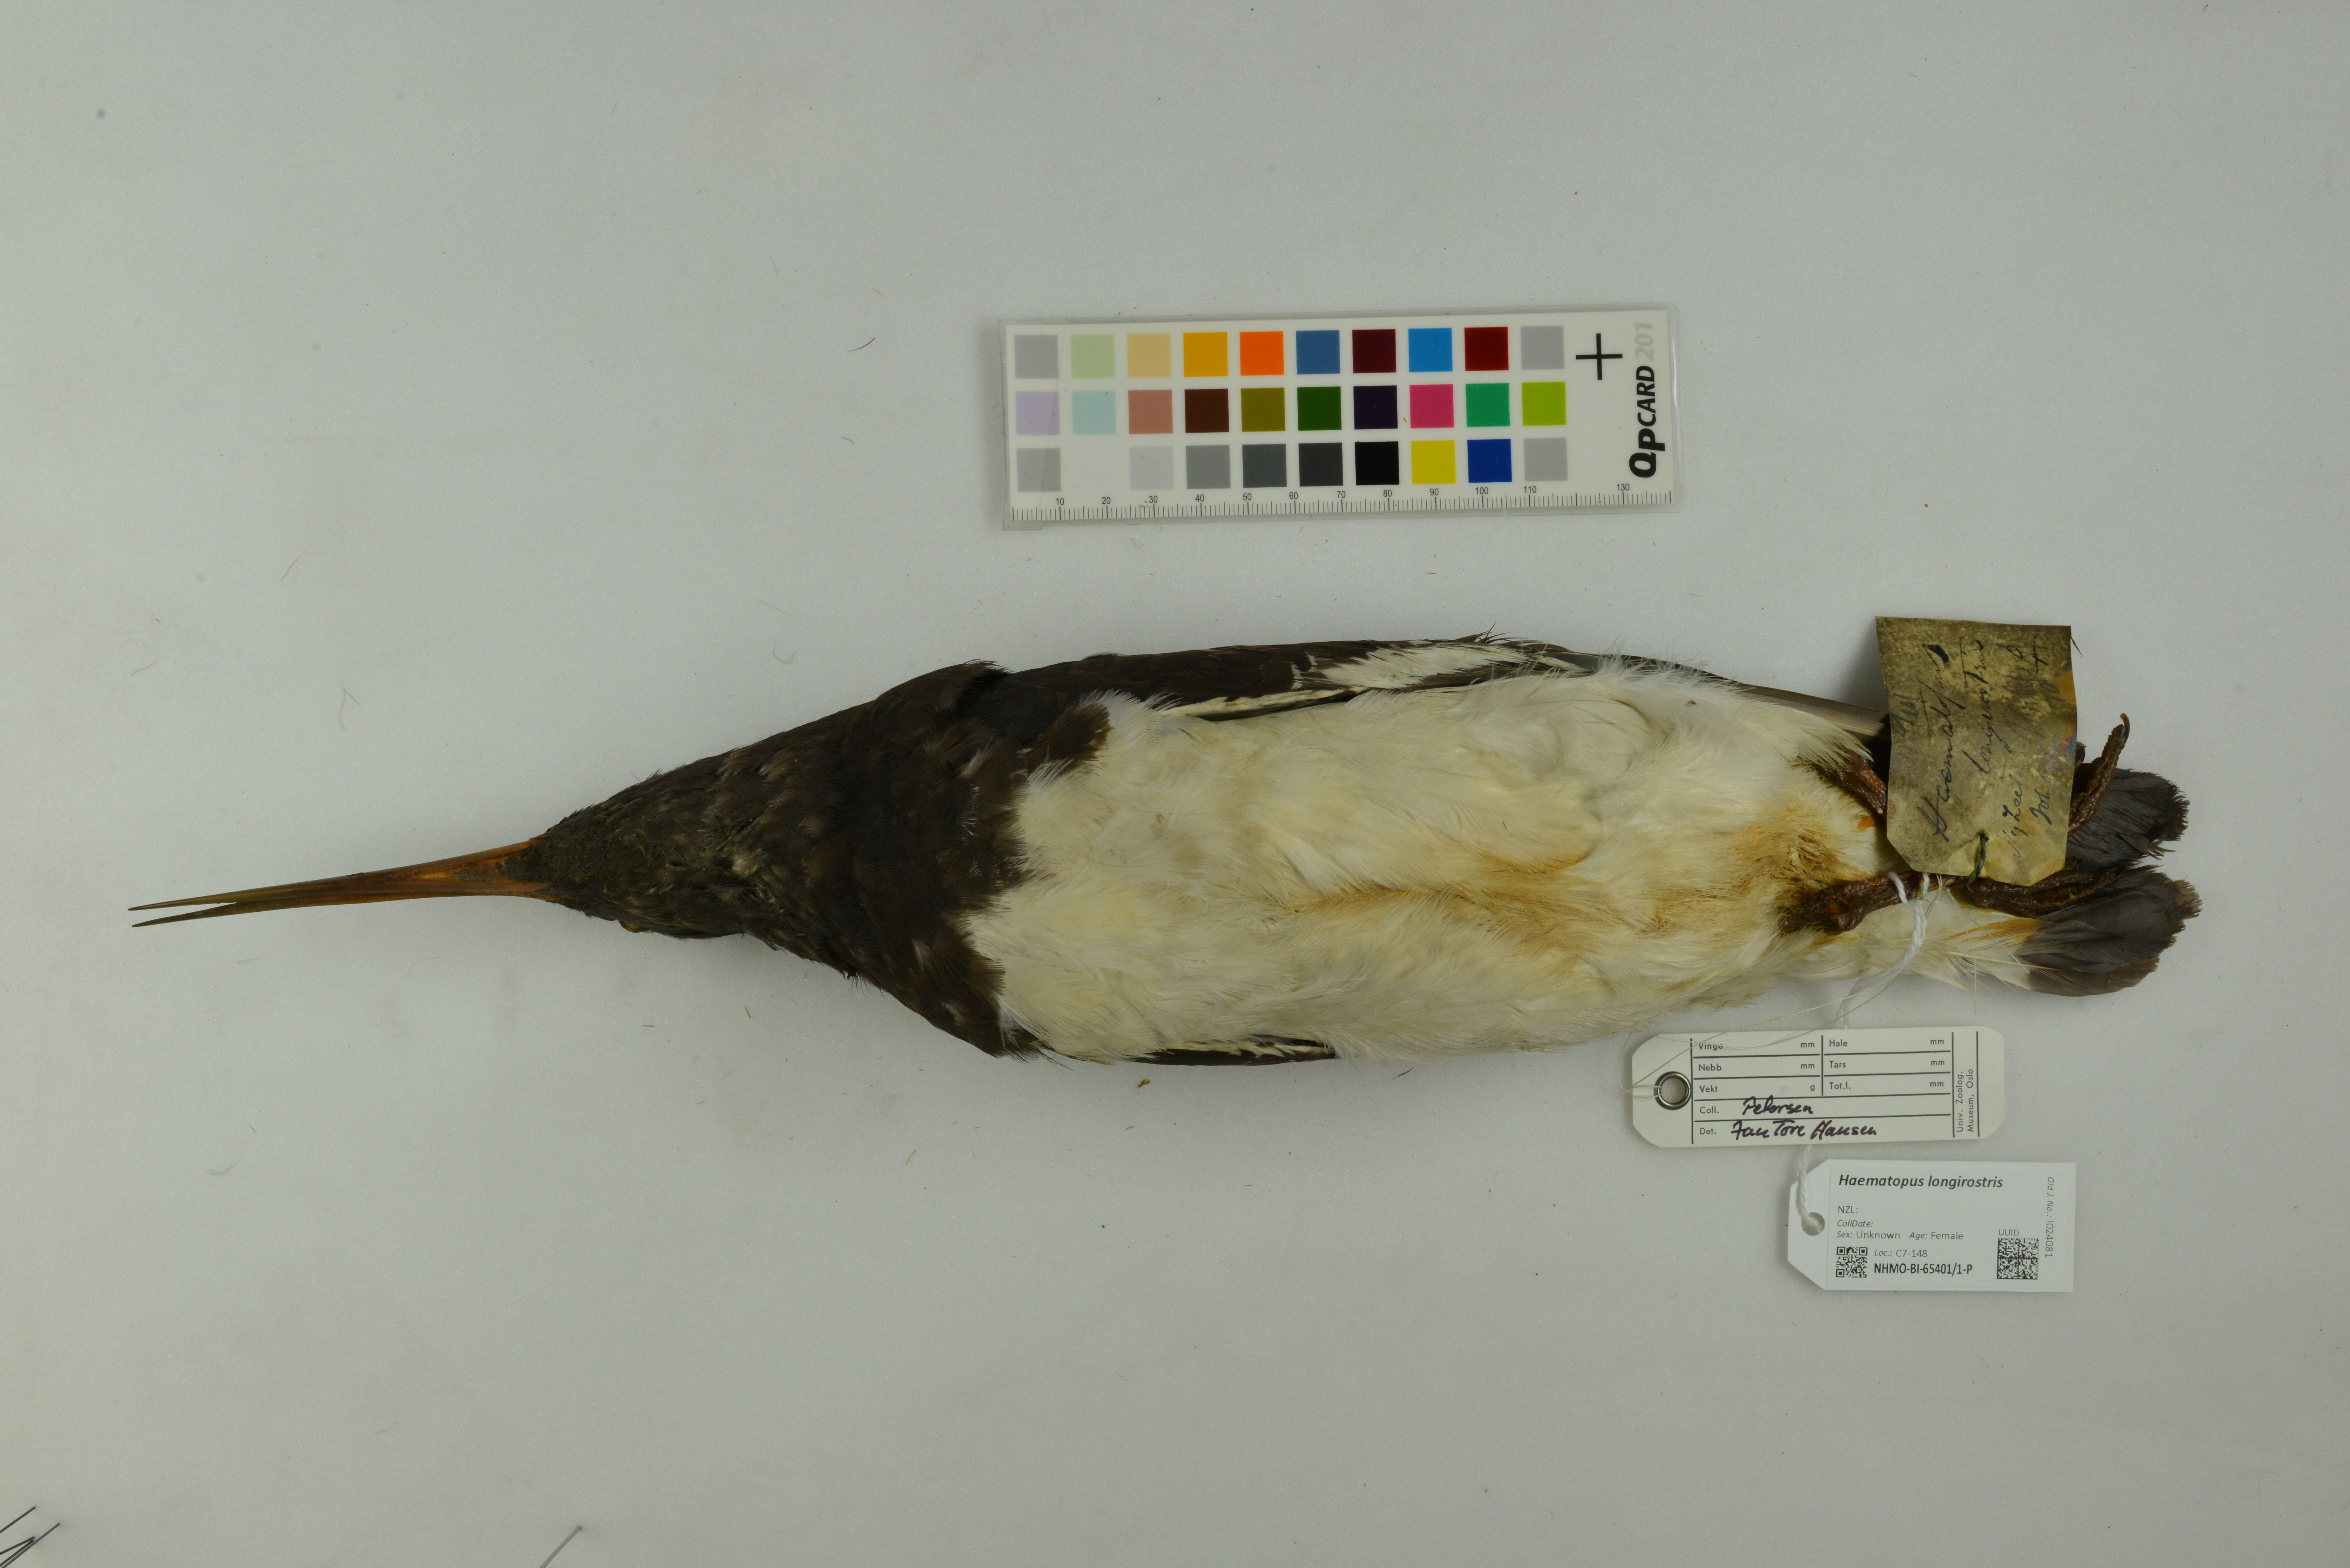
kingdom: Animalia
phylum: Chordata
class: Aves
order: Charadriiformes
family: Haematopodidae
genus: Haematopus
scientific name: Haematopus longirostris
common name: Pied oystercatcher
